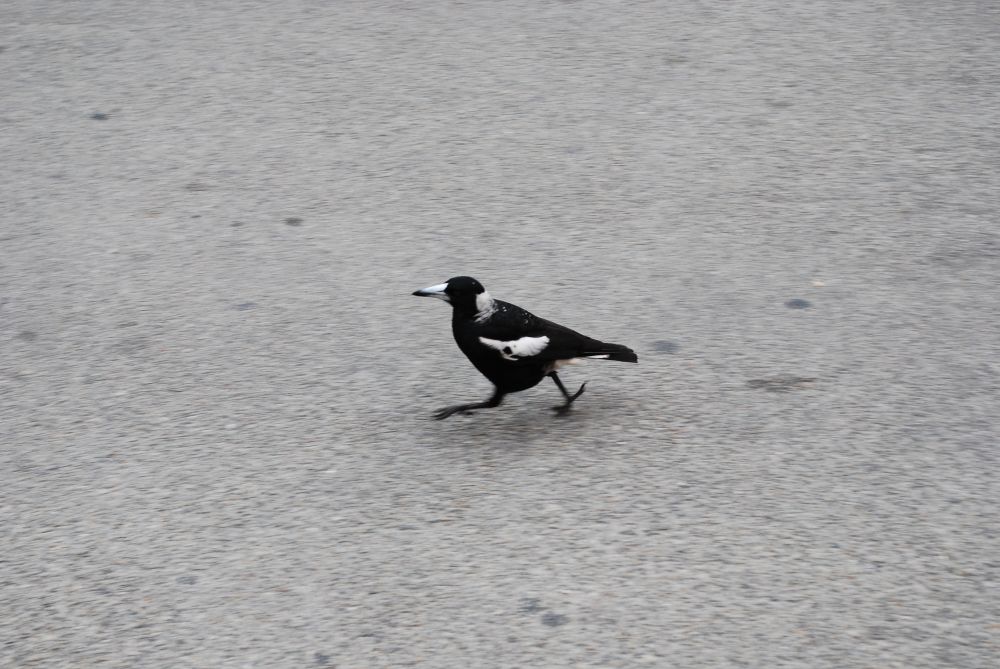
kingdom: Animalia
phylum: Chordata
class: Aves
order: Passeriformes
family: Cracticidae
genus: Gymnorhina
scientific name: Gymnorhina tibicen
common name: Australian magpie
